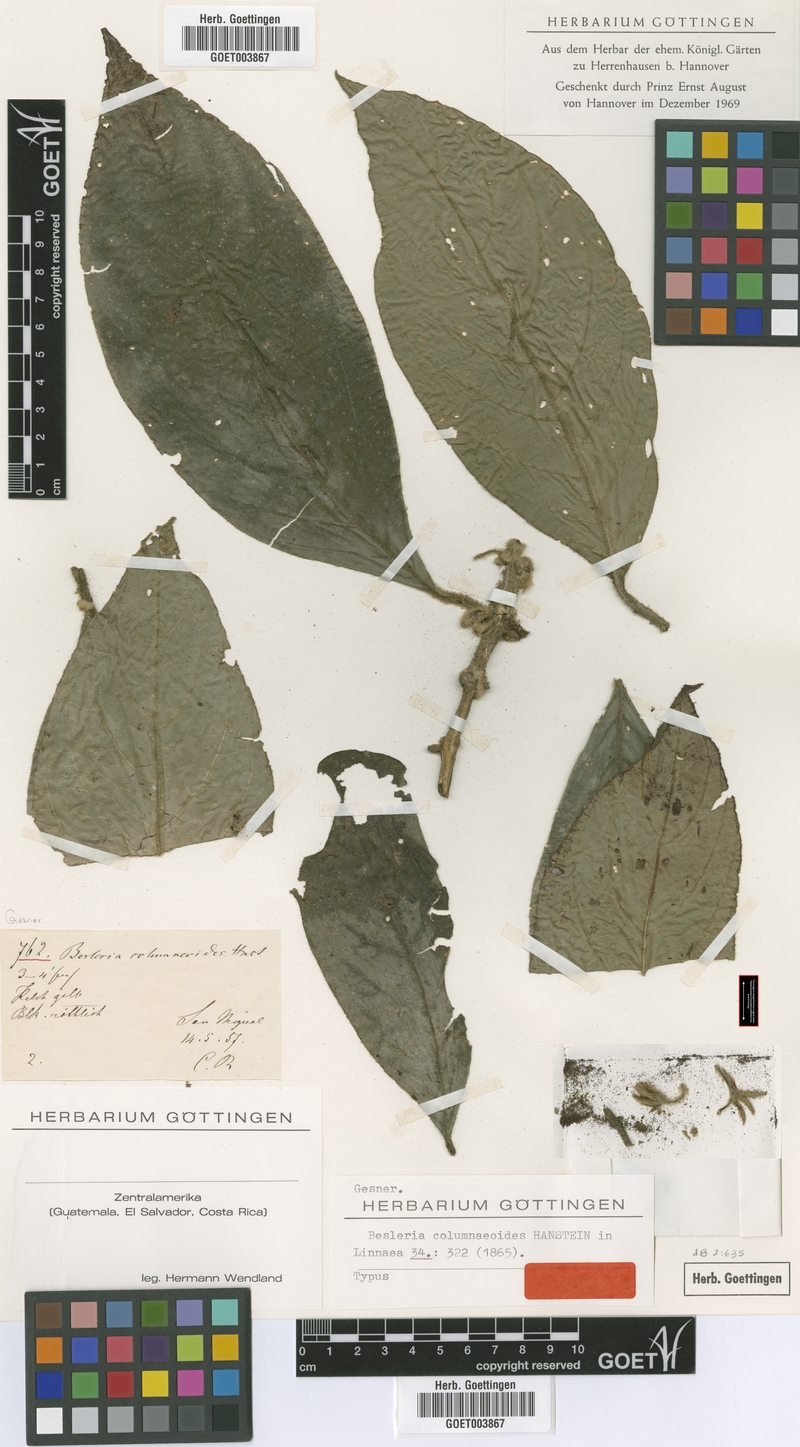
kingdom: Plantae
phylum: Tracheophyta
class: Magnoliopsida
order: Lamiales
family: Gesneriaceae
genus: Besleria
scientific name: Besleria columneoides
